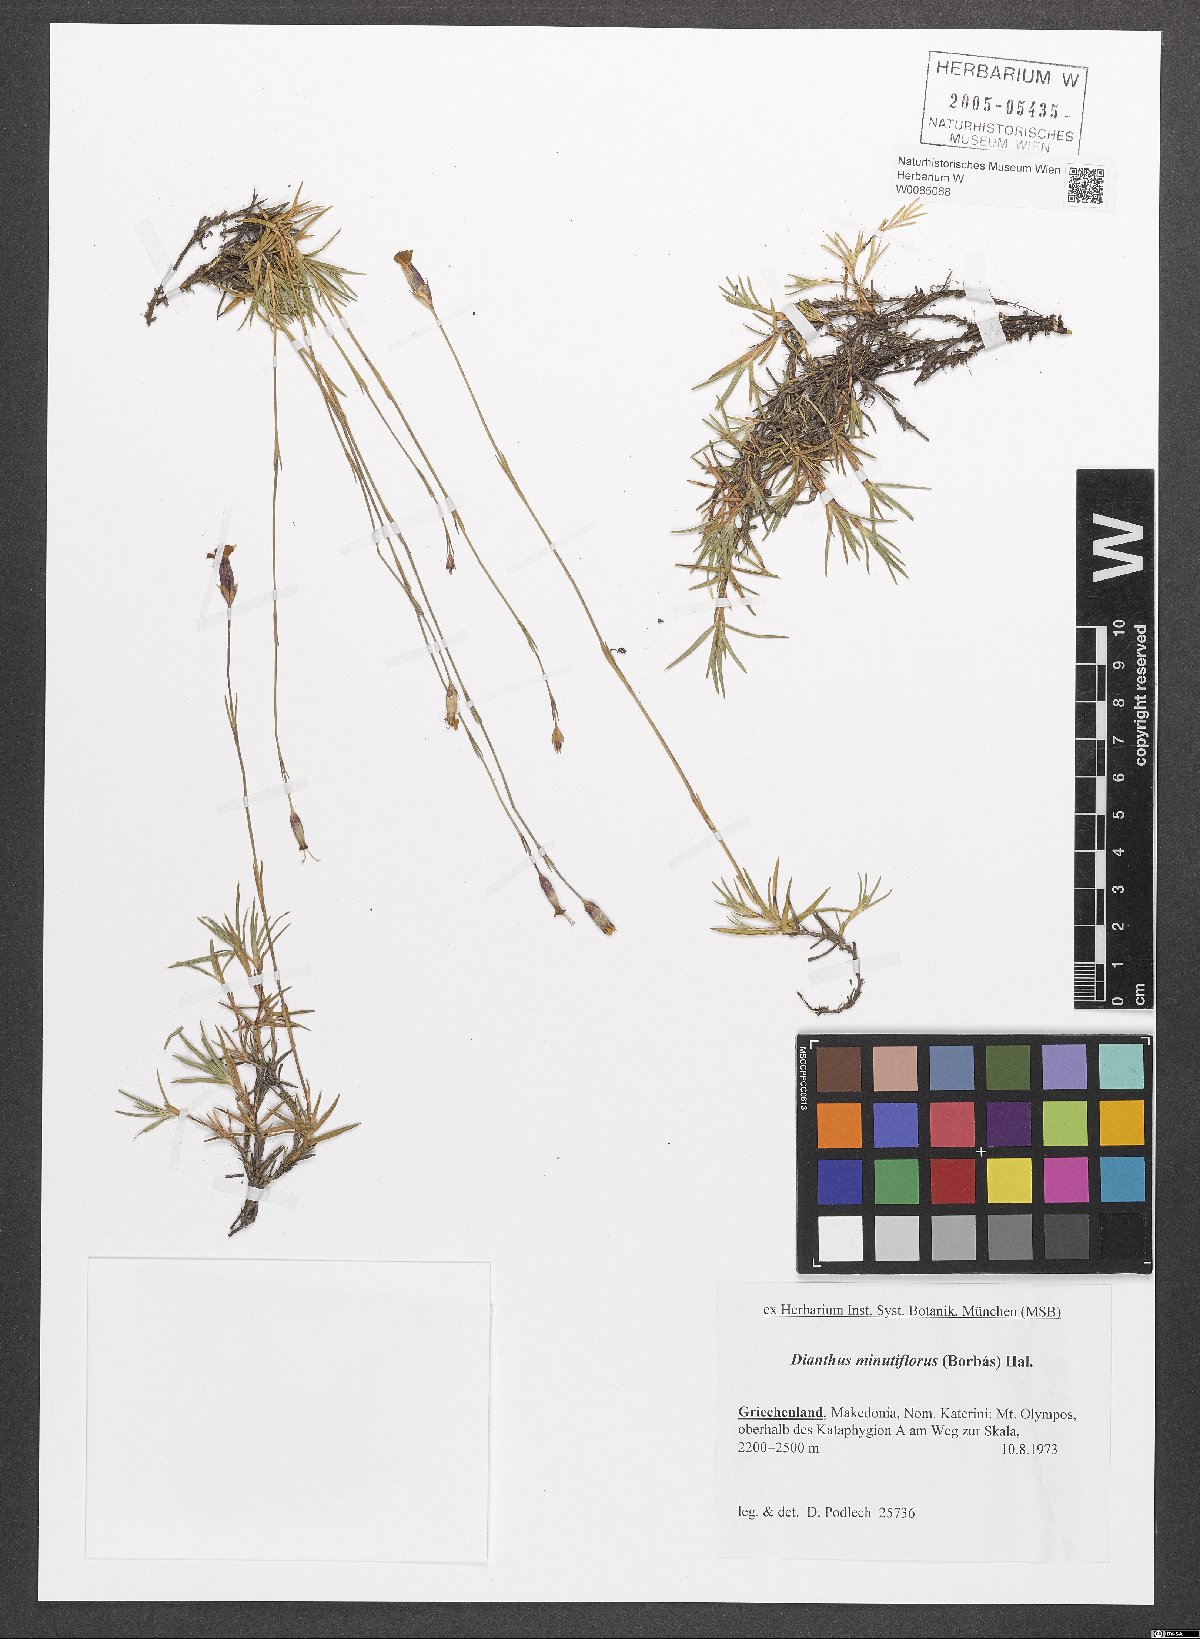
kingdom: Plantae
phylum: Tracheophyta
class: Magnoliopsida
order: Caryophyllales
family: Caryophyllaceae
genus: Dianthus
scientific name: Dianthus integer
